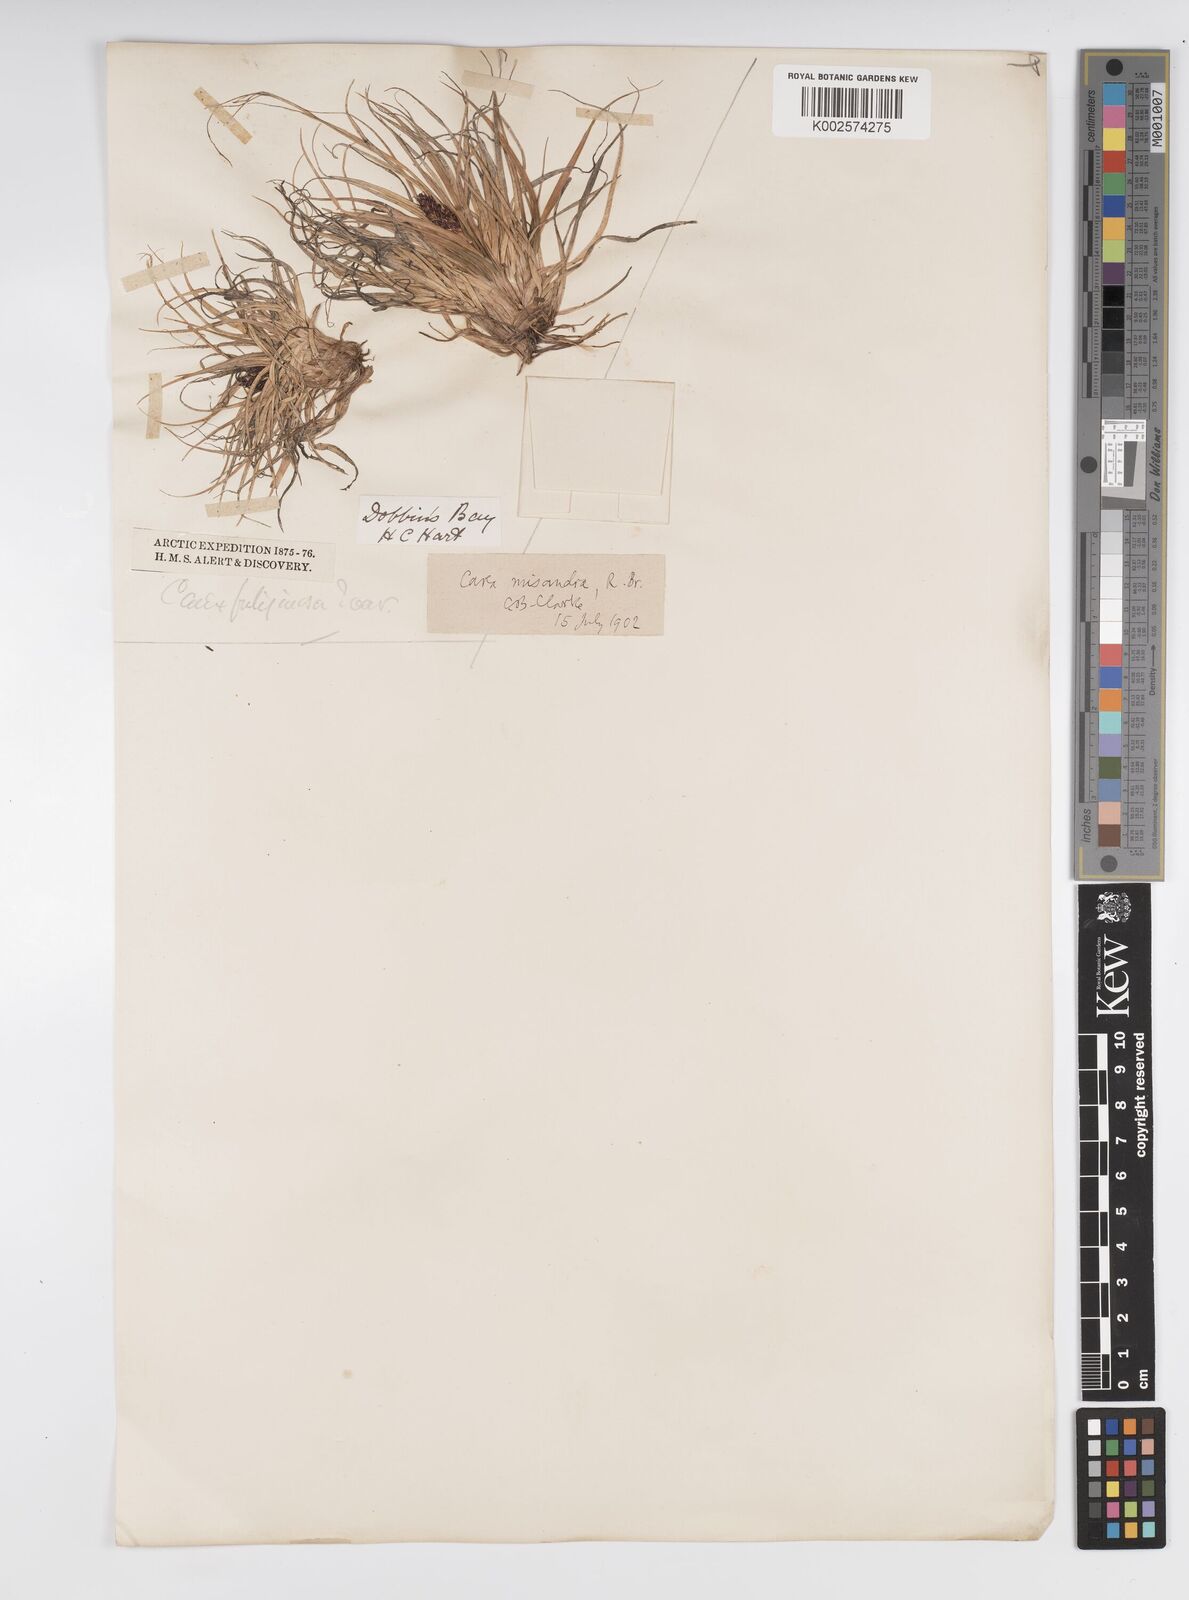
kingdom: Plantae
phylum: Tracheophyta
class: Liliopsida
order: Poales
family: Cyperaceae
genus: Carex
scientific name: Carex fuliginosa
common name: Few-flowered sedge
